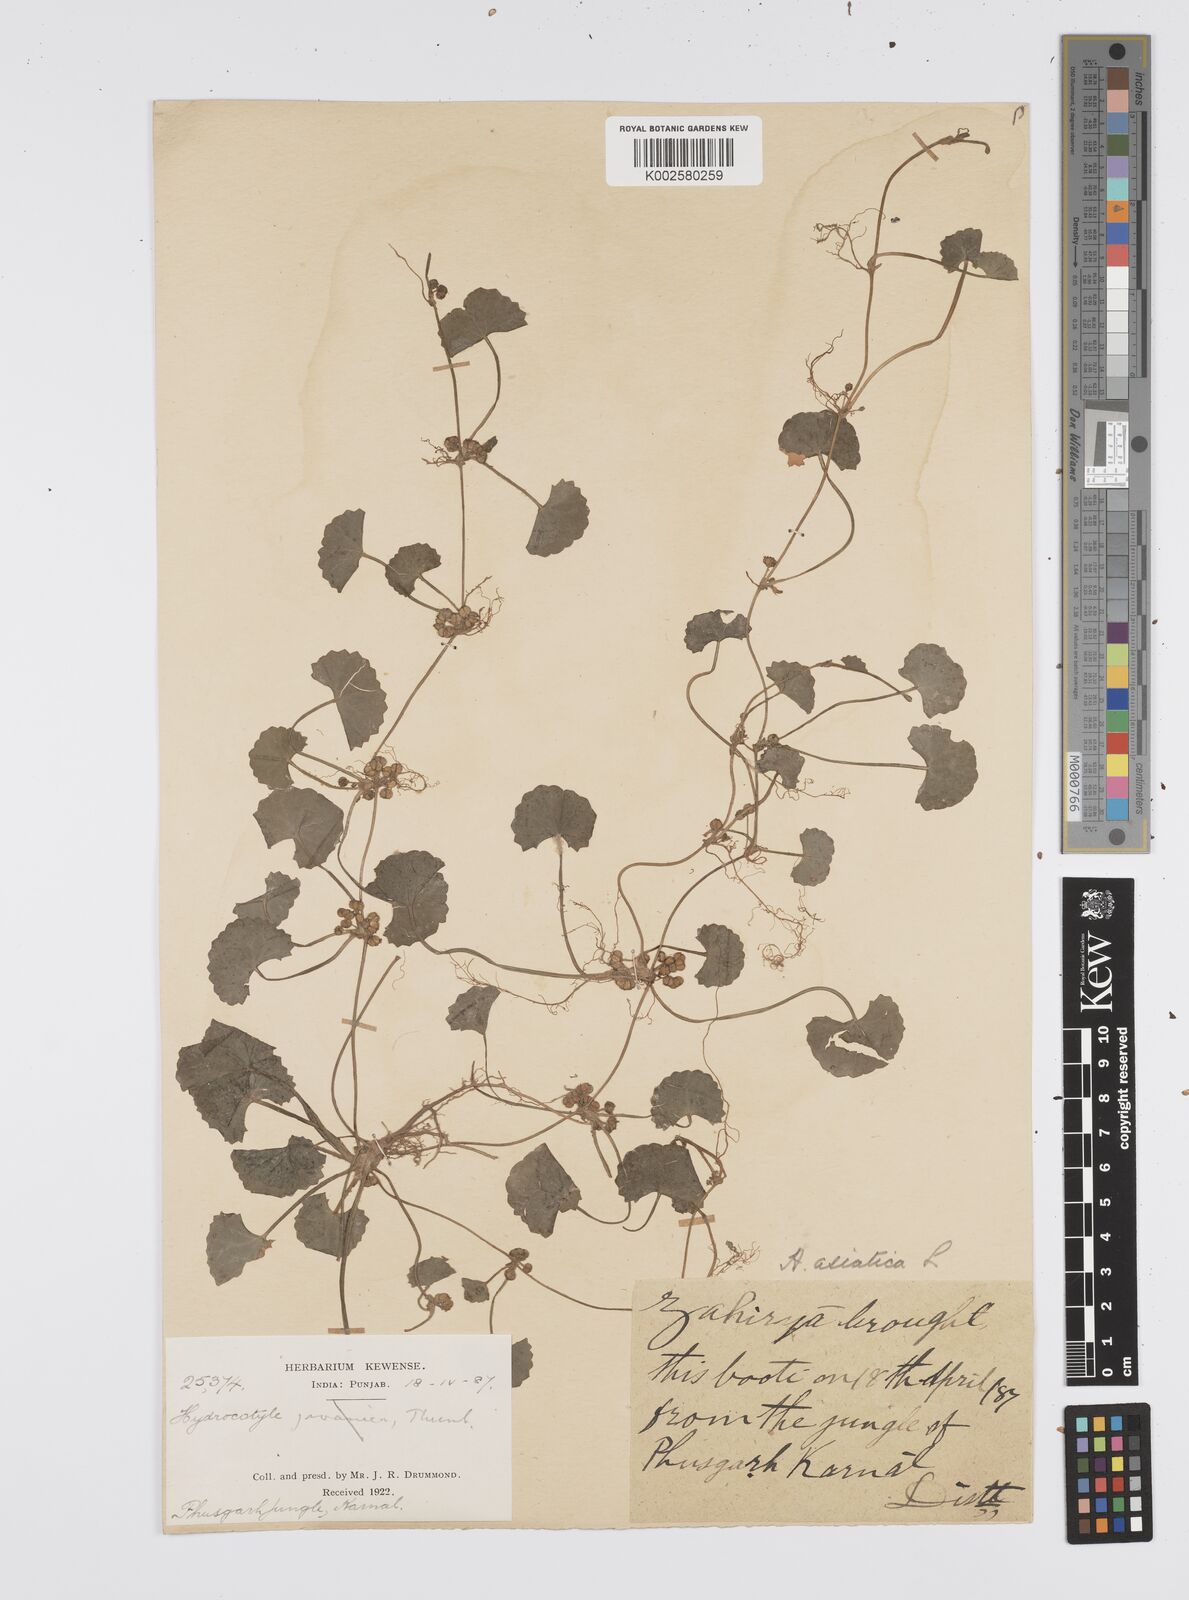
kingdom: Plantae
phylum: Tracheophyta
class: Magnoliopsida
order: Apiales
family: Apiaceae
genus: Centella
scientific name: Centella asiatica
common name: Spadeleaf
